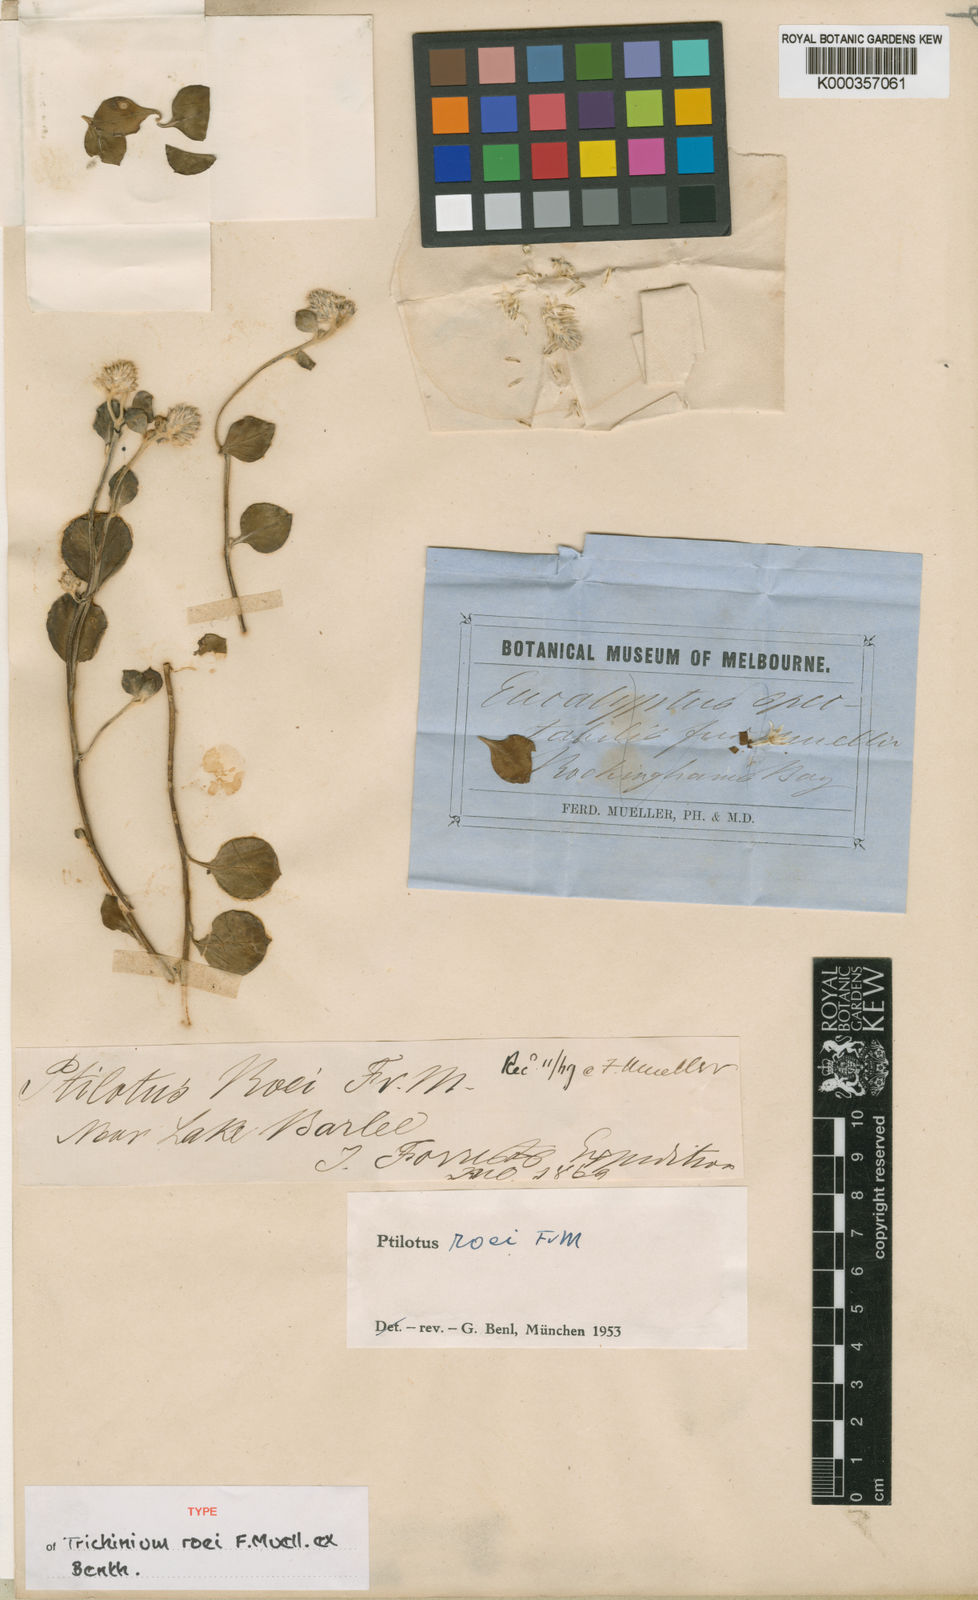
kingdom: Plantae
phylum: Tracheophyta
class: Magnoliopsida
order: Caryophyllales
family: Amaranthaceae
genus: Ptilotus
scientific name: Ptilotus roei
